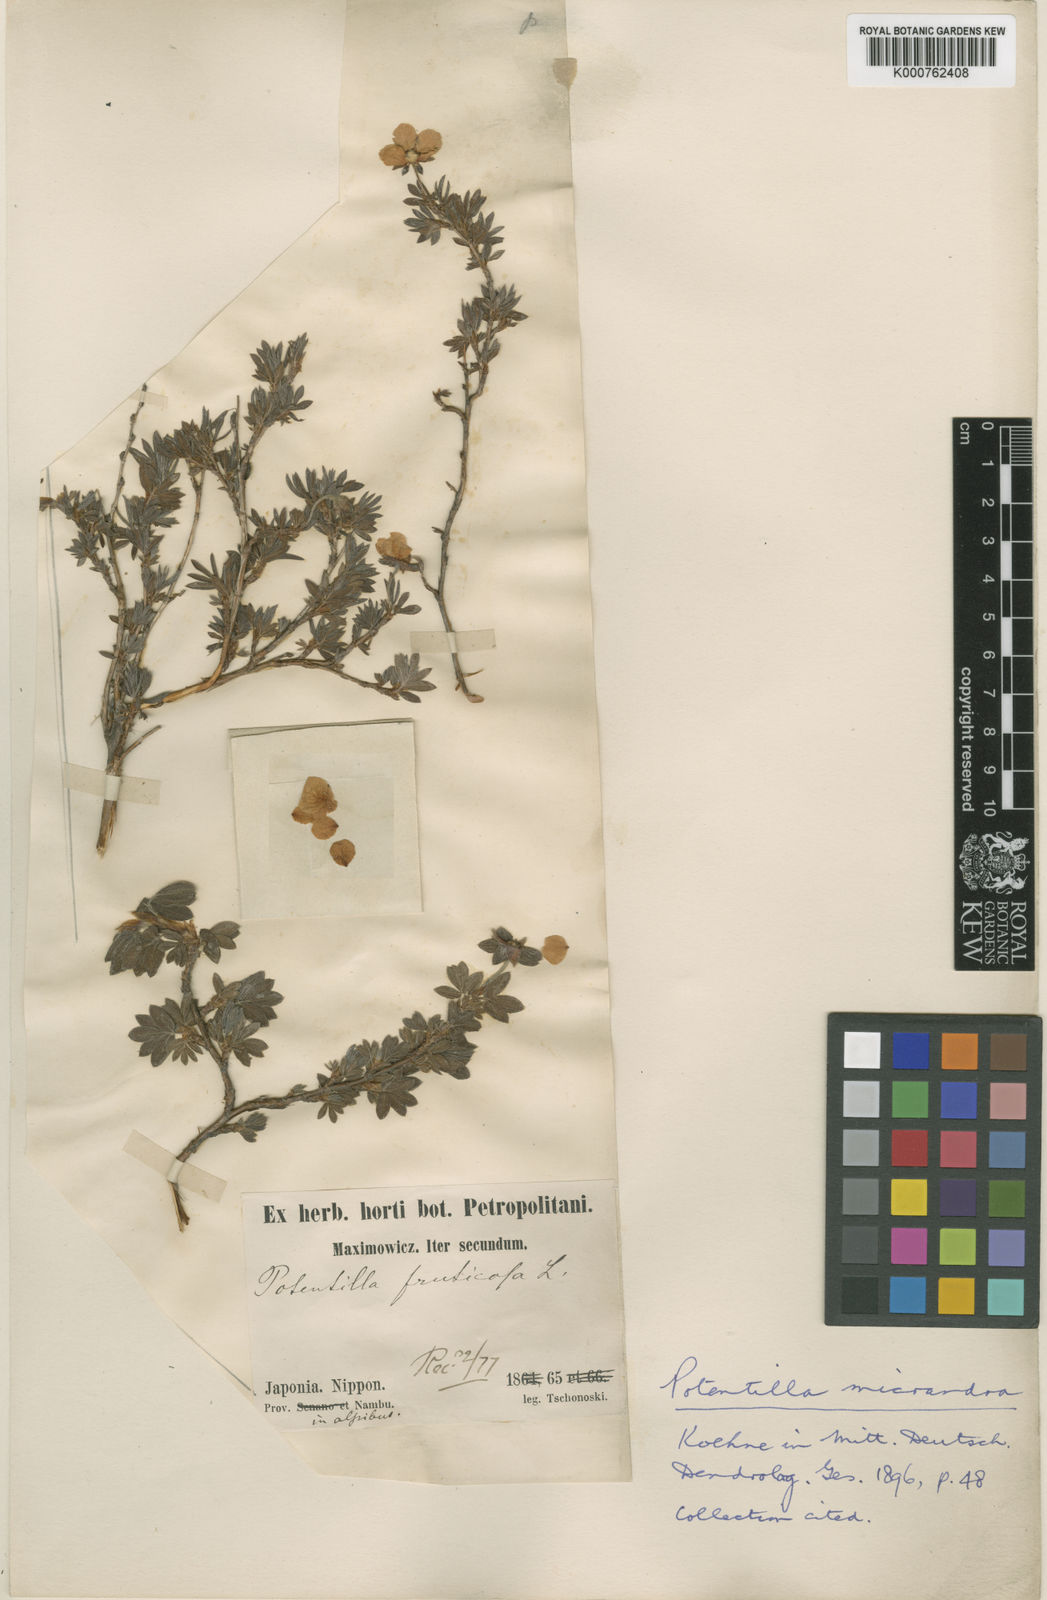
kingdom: Plantae
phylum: Tracheophyta
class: Magnoliopsida
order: Rosales
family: Rosaceae
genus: Dasiphora
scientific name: Dasiphora fruticosa
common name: Shrubby cinquefoil
